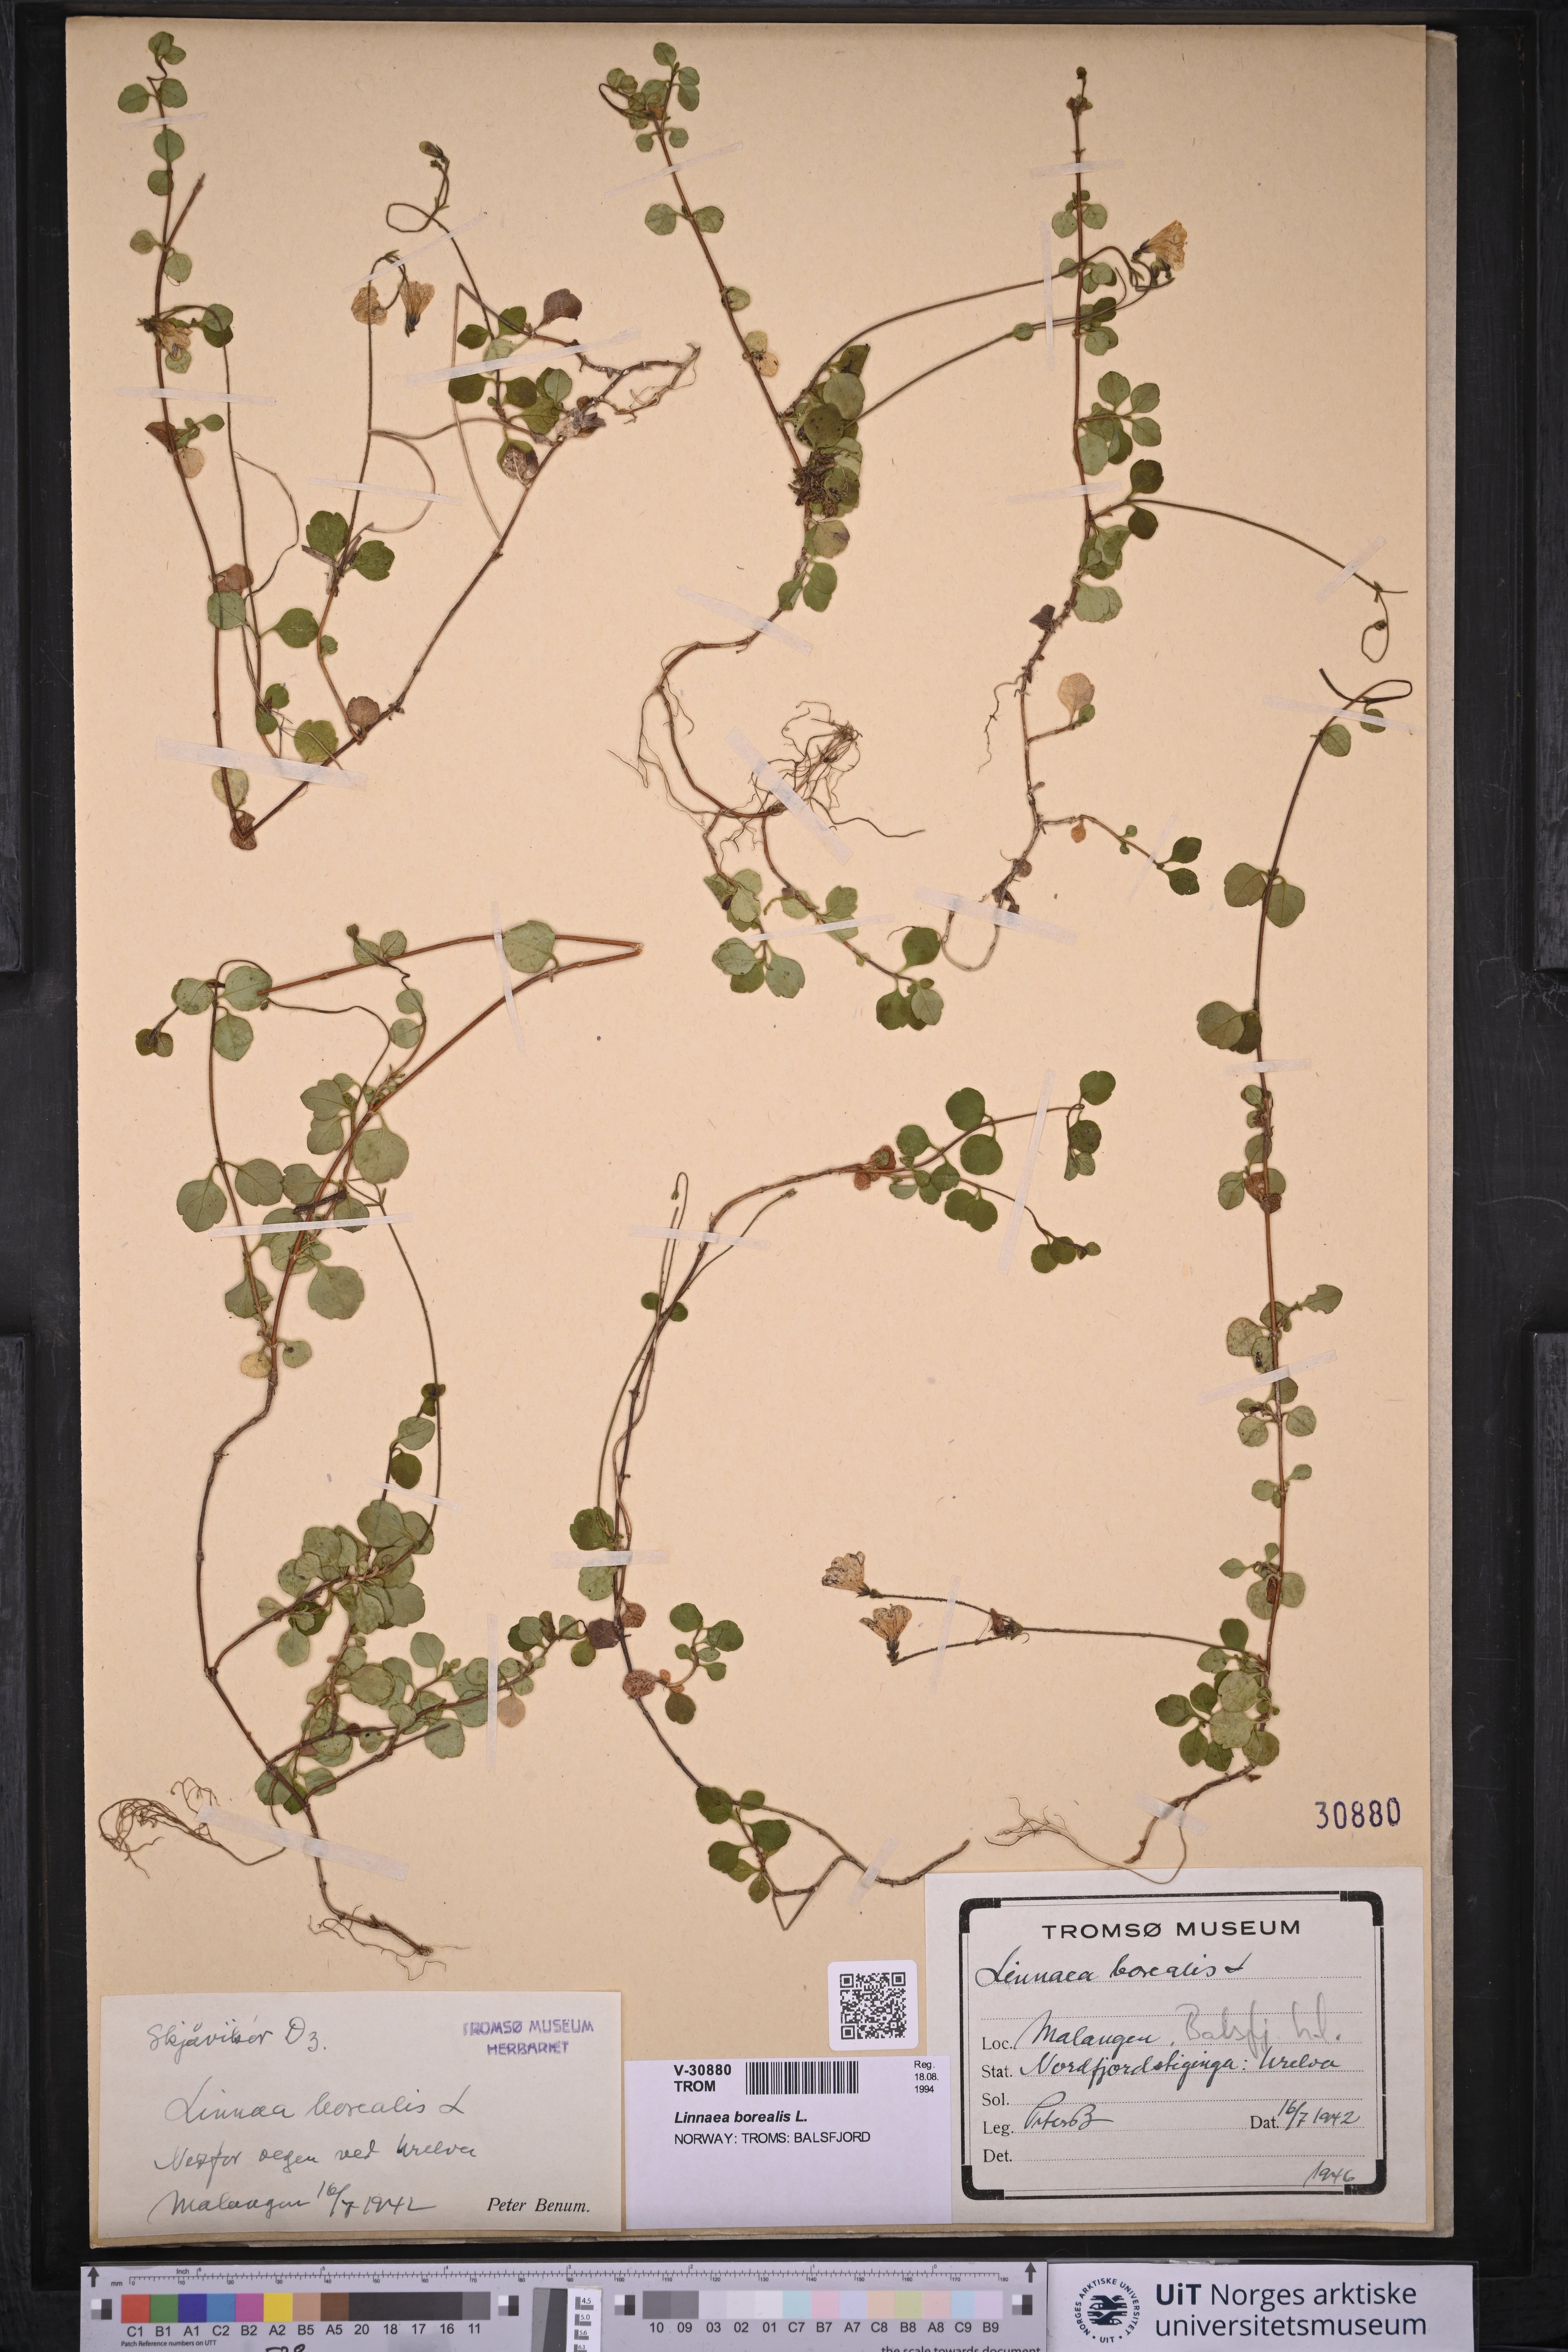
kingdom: Plantae
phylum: Tracheophyta
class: Magnoliopsida
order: Dipsacales
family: Caprifoliaceae
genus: Linnaea
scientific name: Linnaea borealis
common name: Twinflower
